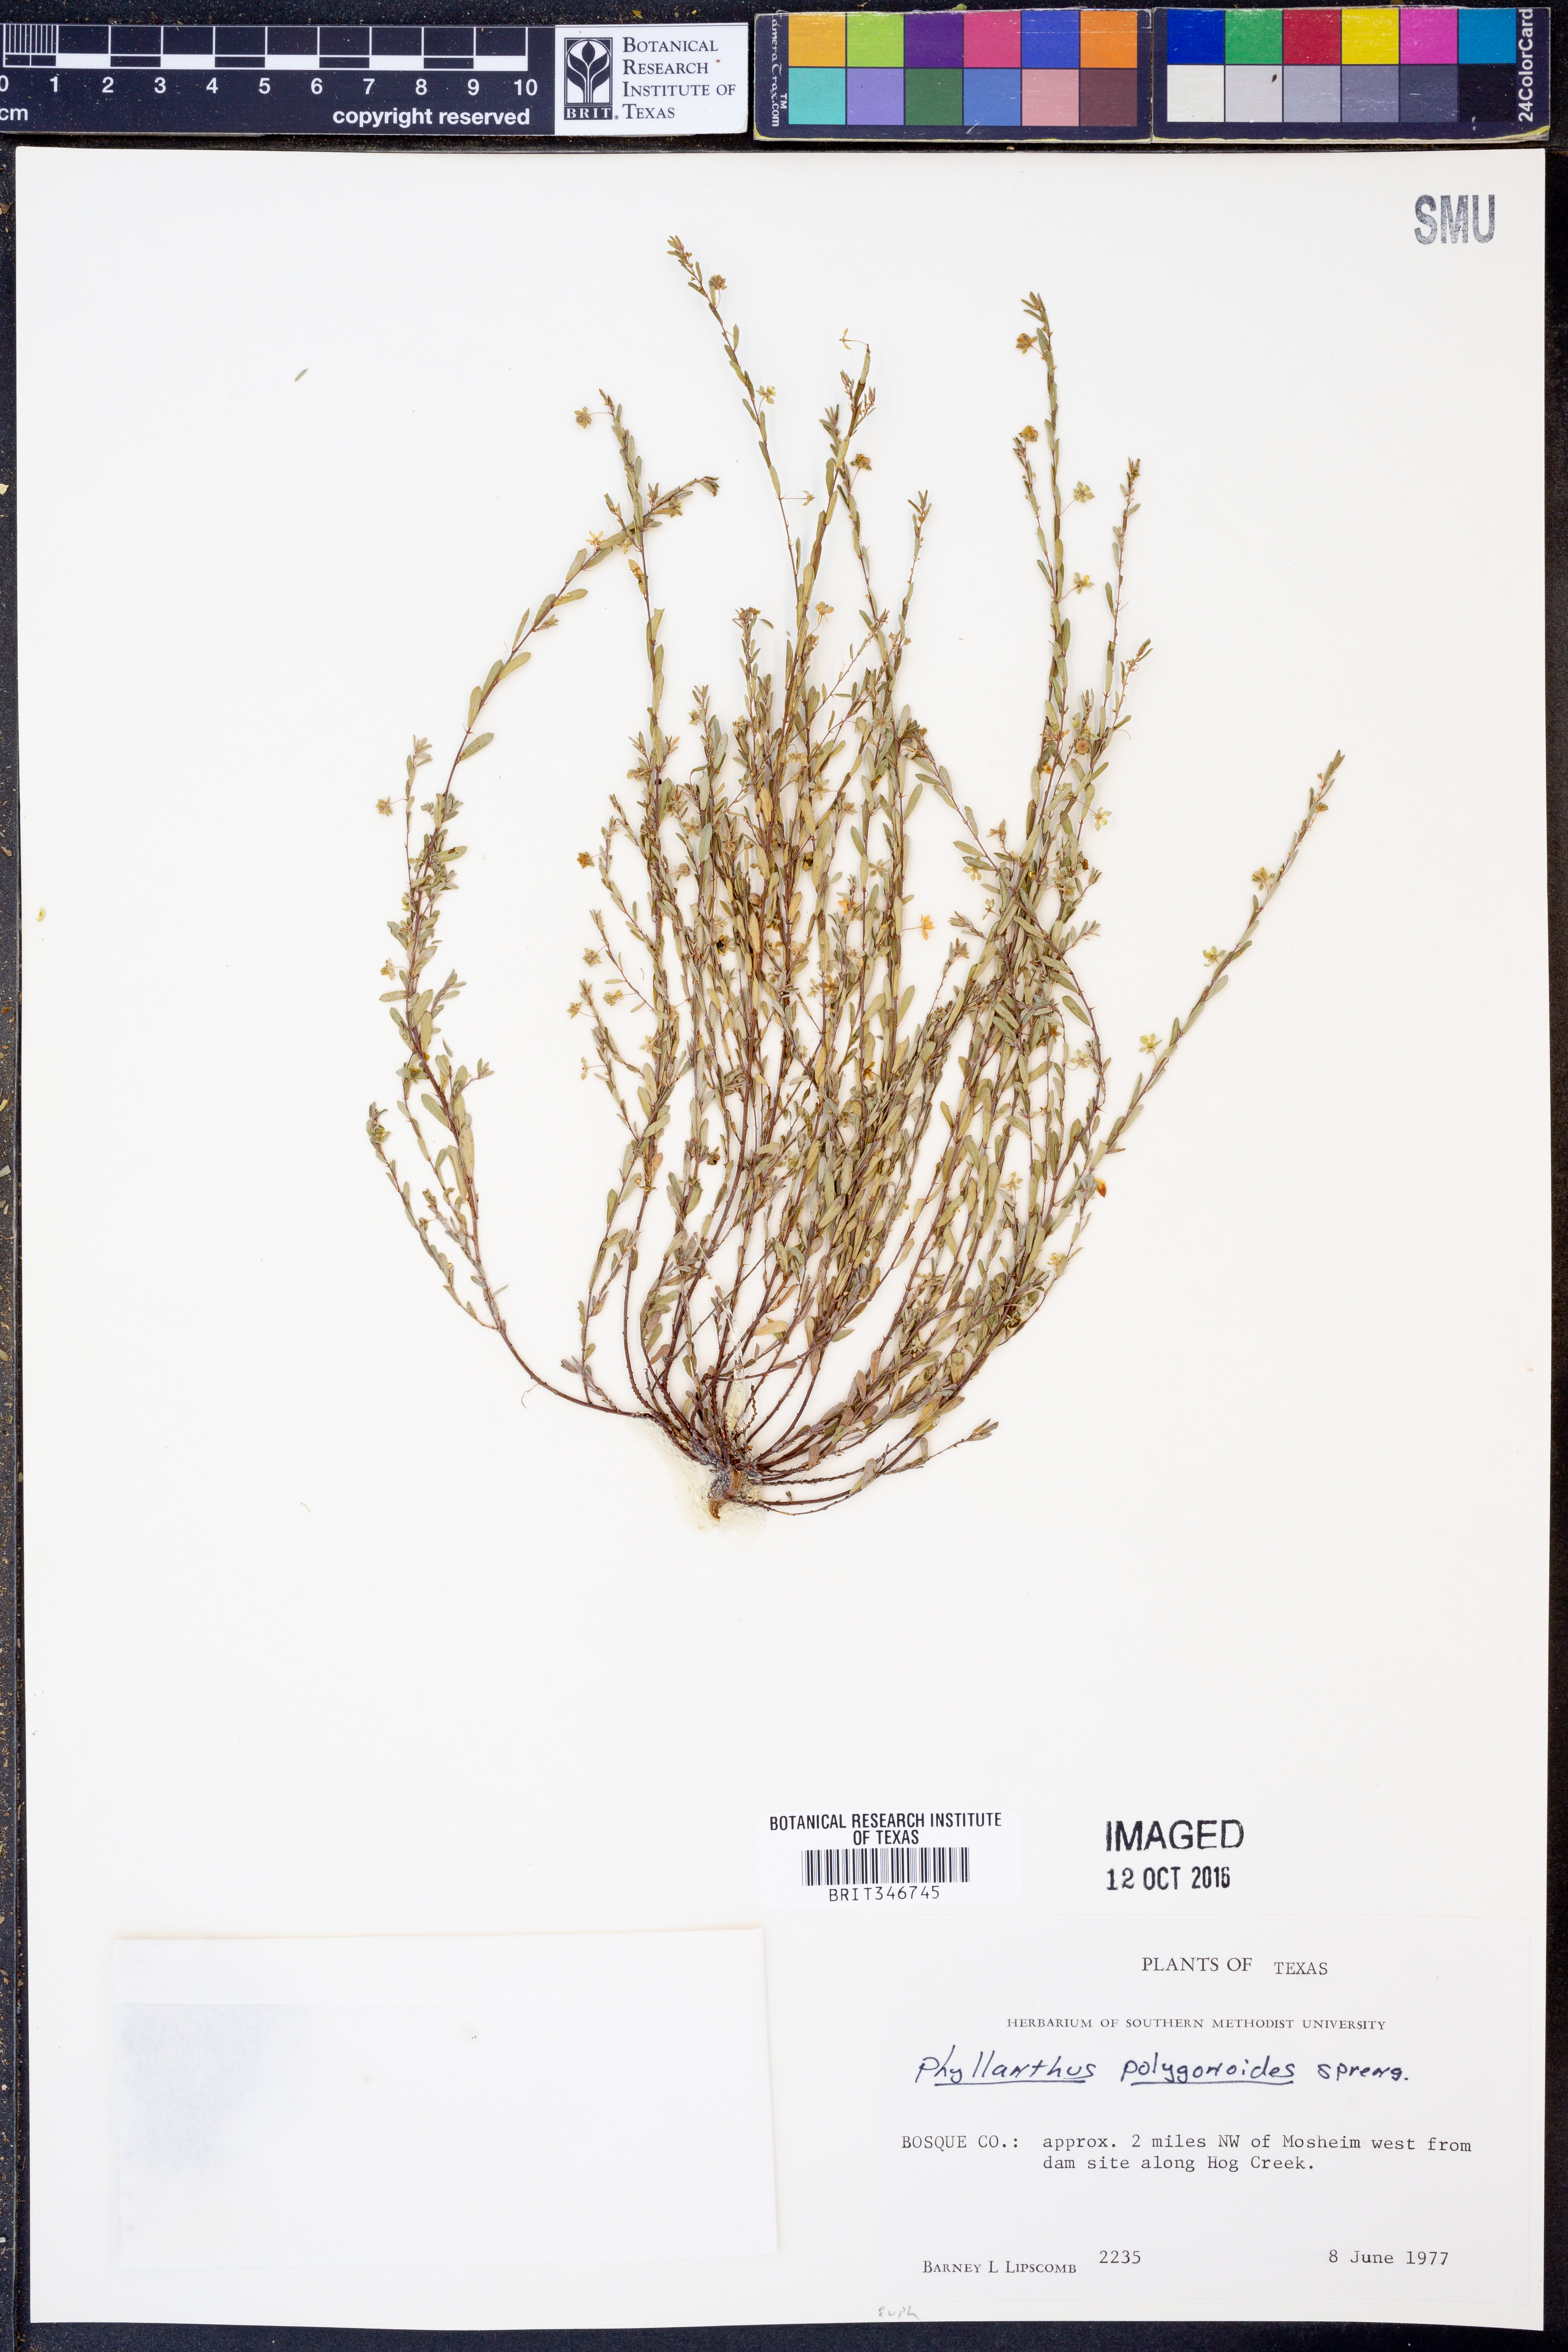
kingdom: Plantae
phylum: Tracheophyta
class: Magnoliopsida
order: Malpighiales
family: Phyllanthaceae
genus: Phyllanthus
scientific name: Phyllanthus polygonoides
